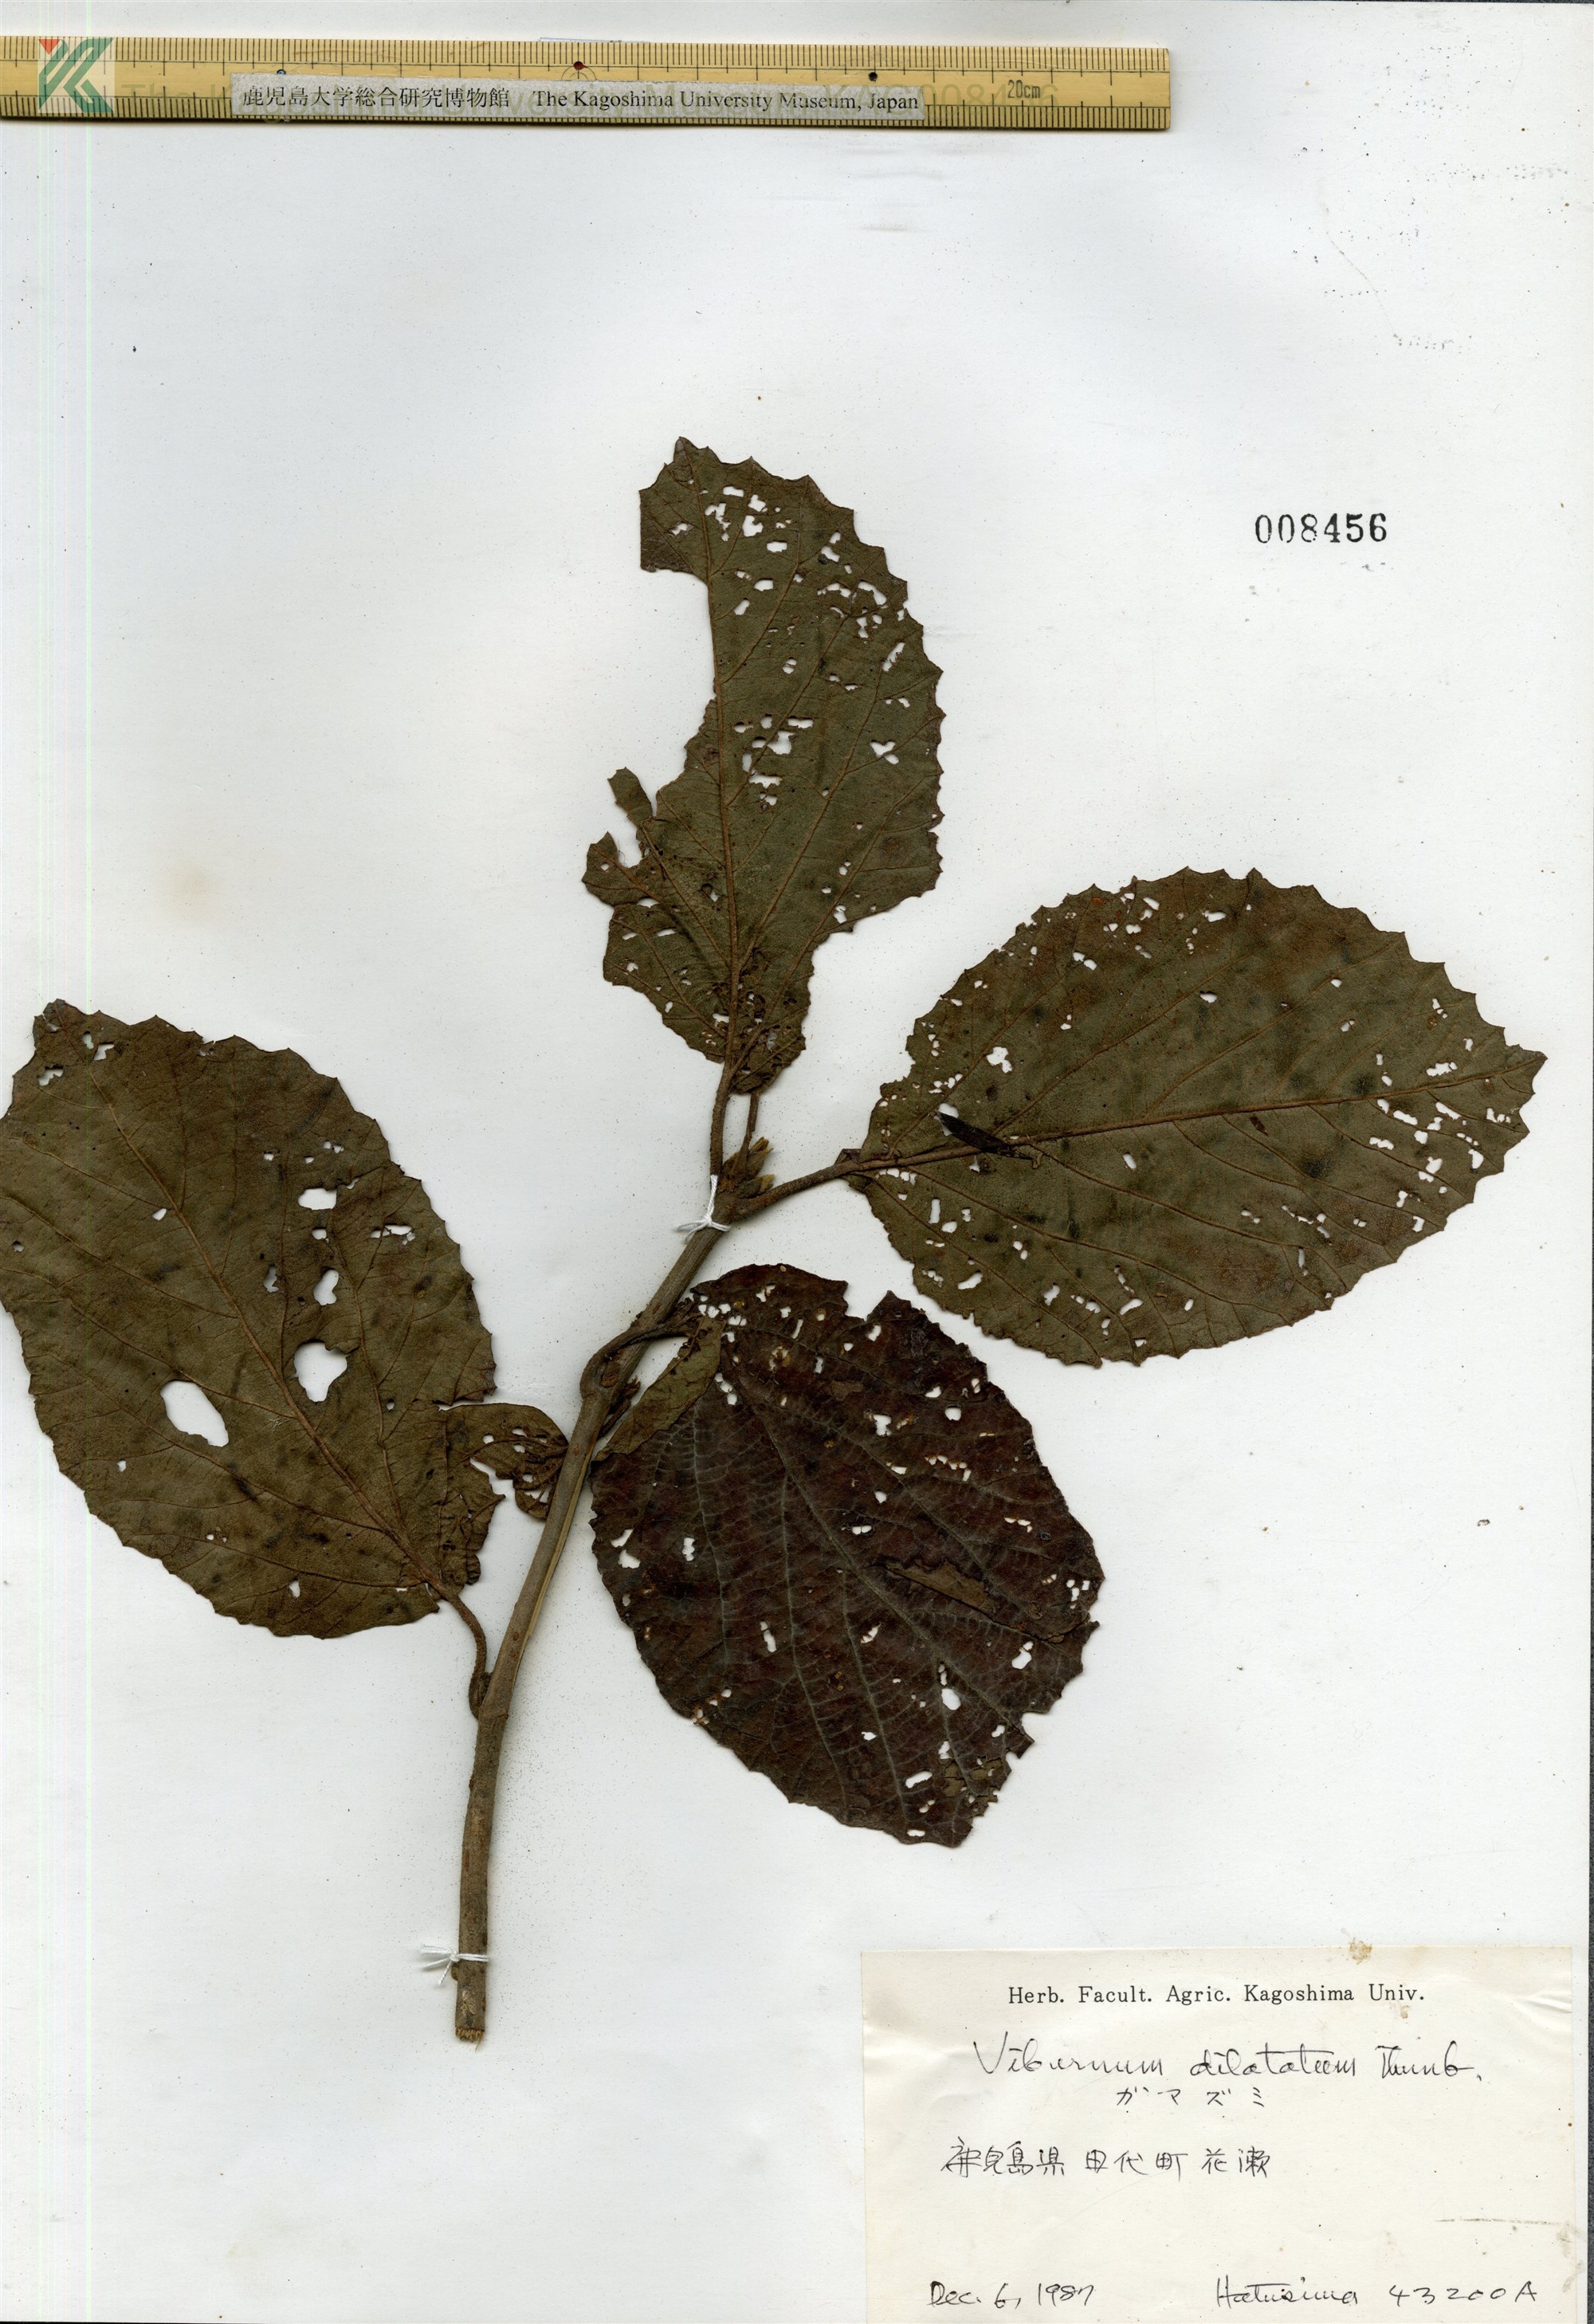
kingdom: Plantae
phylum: Tracheophyta
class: Magnoliopsida
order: Dipsacales
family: Viburnaceae
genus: Viburnum
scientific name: Viburnum dilatatum
